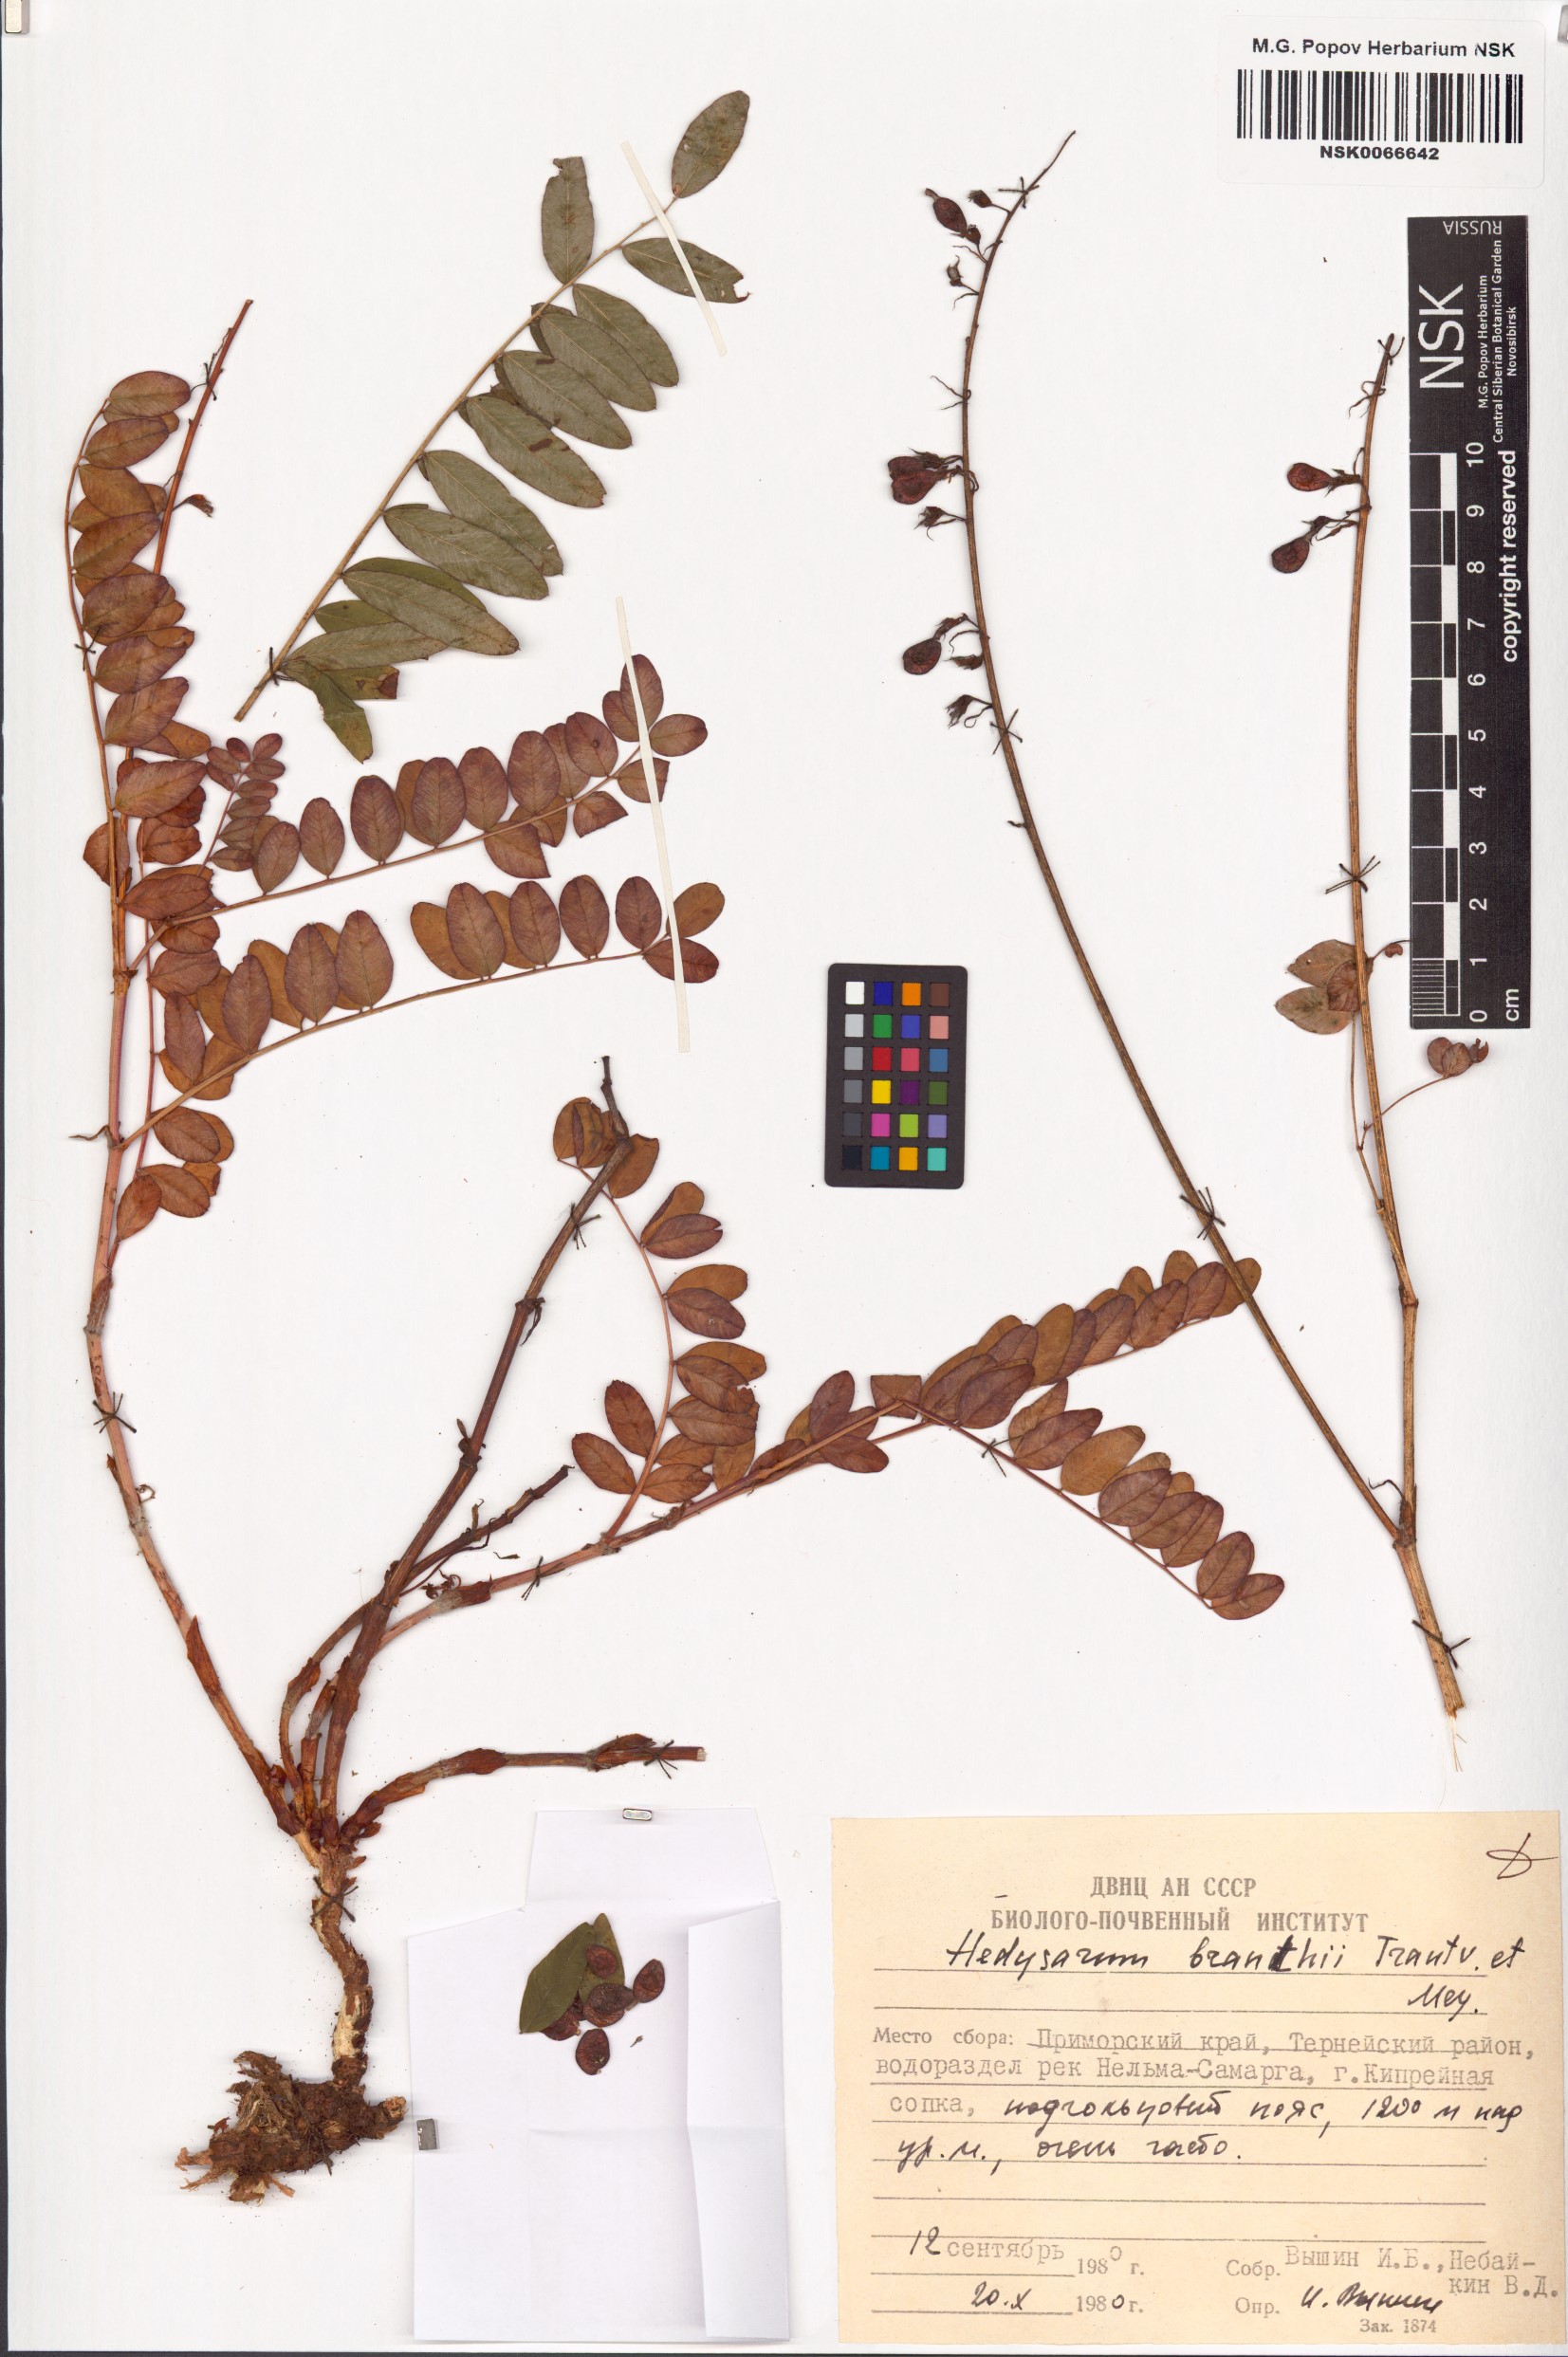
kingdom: Plantae
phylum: Tracheophyta
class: Magnoliopsida
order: Fabales
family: Fabaceae
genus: Hedysarum
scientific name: Hedysarum branthii
